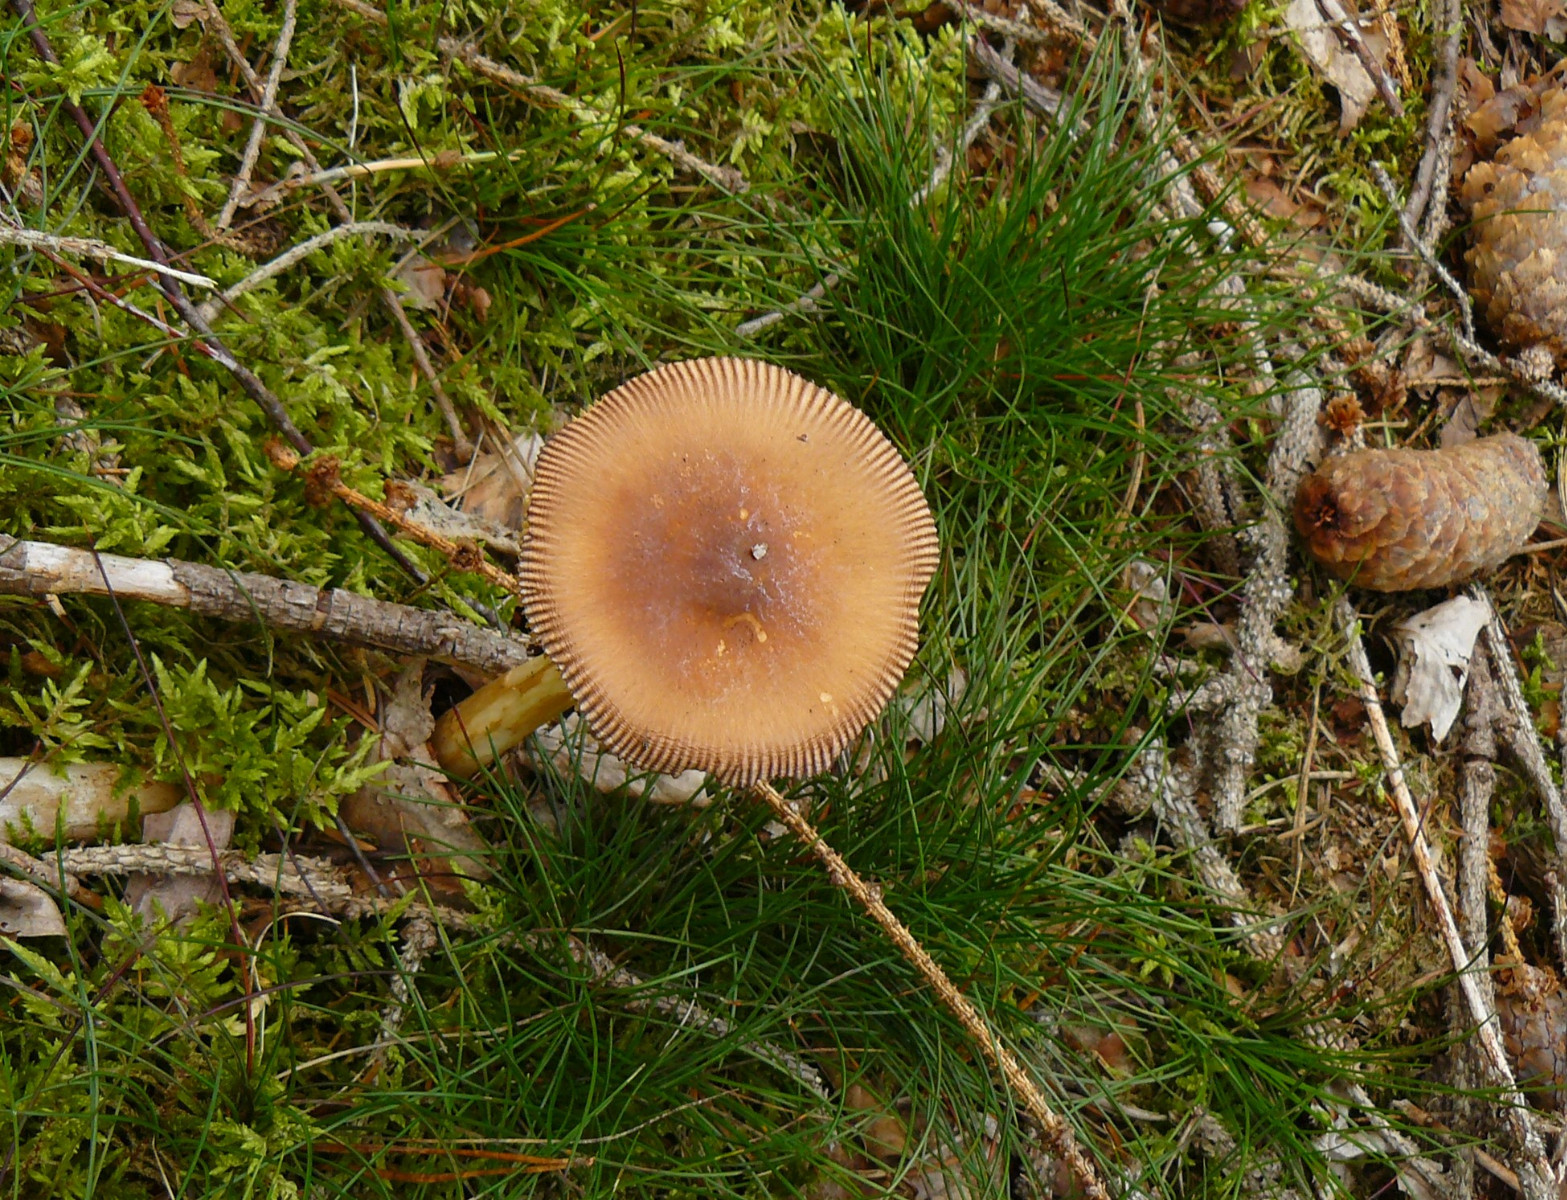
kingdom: Fungi
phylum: Basidiomycota
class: Agaricomycetes
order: Agaricales
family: Amanitaceae
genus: Amanita
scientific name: Amanita fulva
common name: brun kam-fluesvamp
